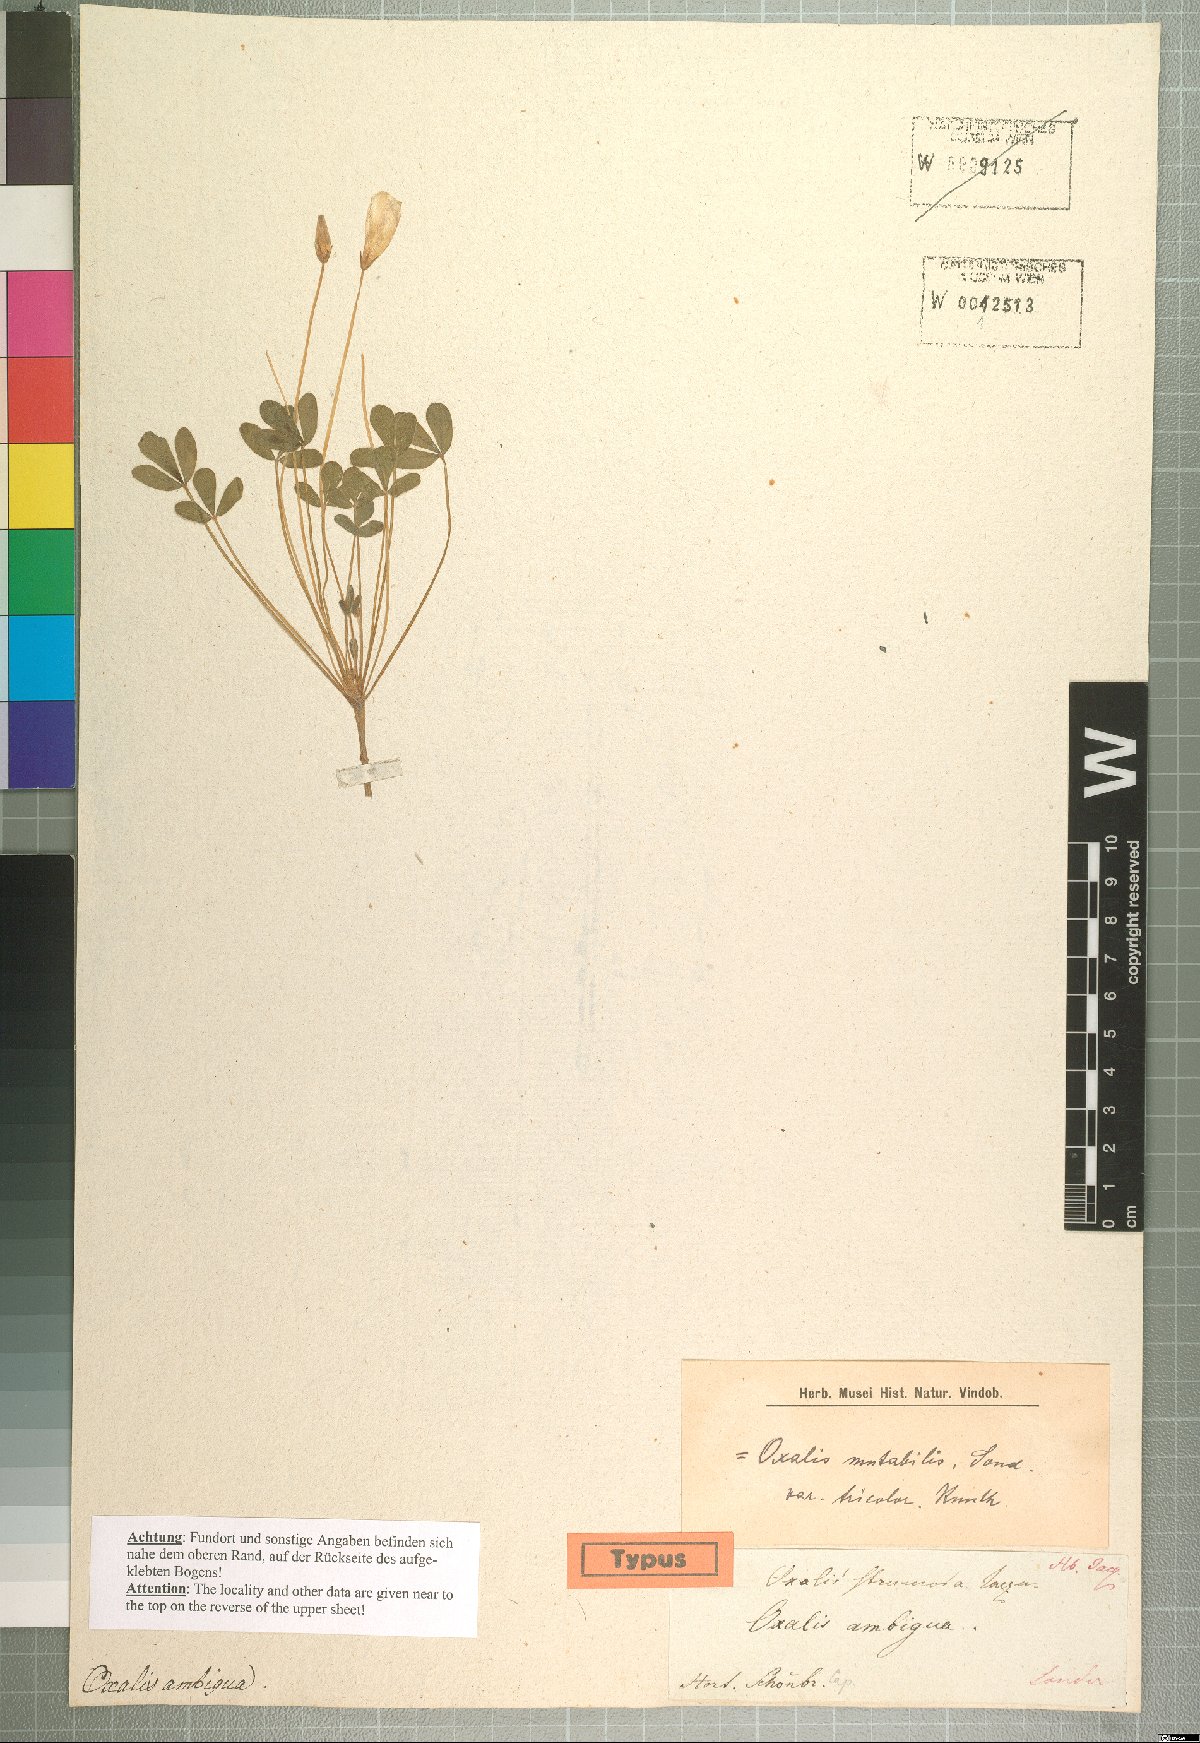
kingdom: Plantae
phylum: Tracheophyta
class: Magnoliopsida
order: Oxalidales
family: Oxalidaceae
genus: Oxalis
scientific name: Oxalis ambigua
